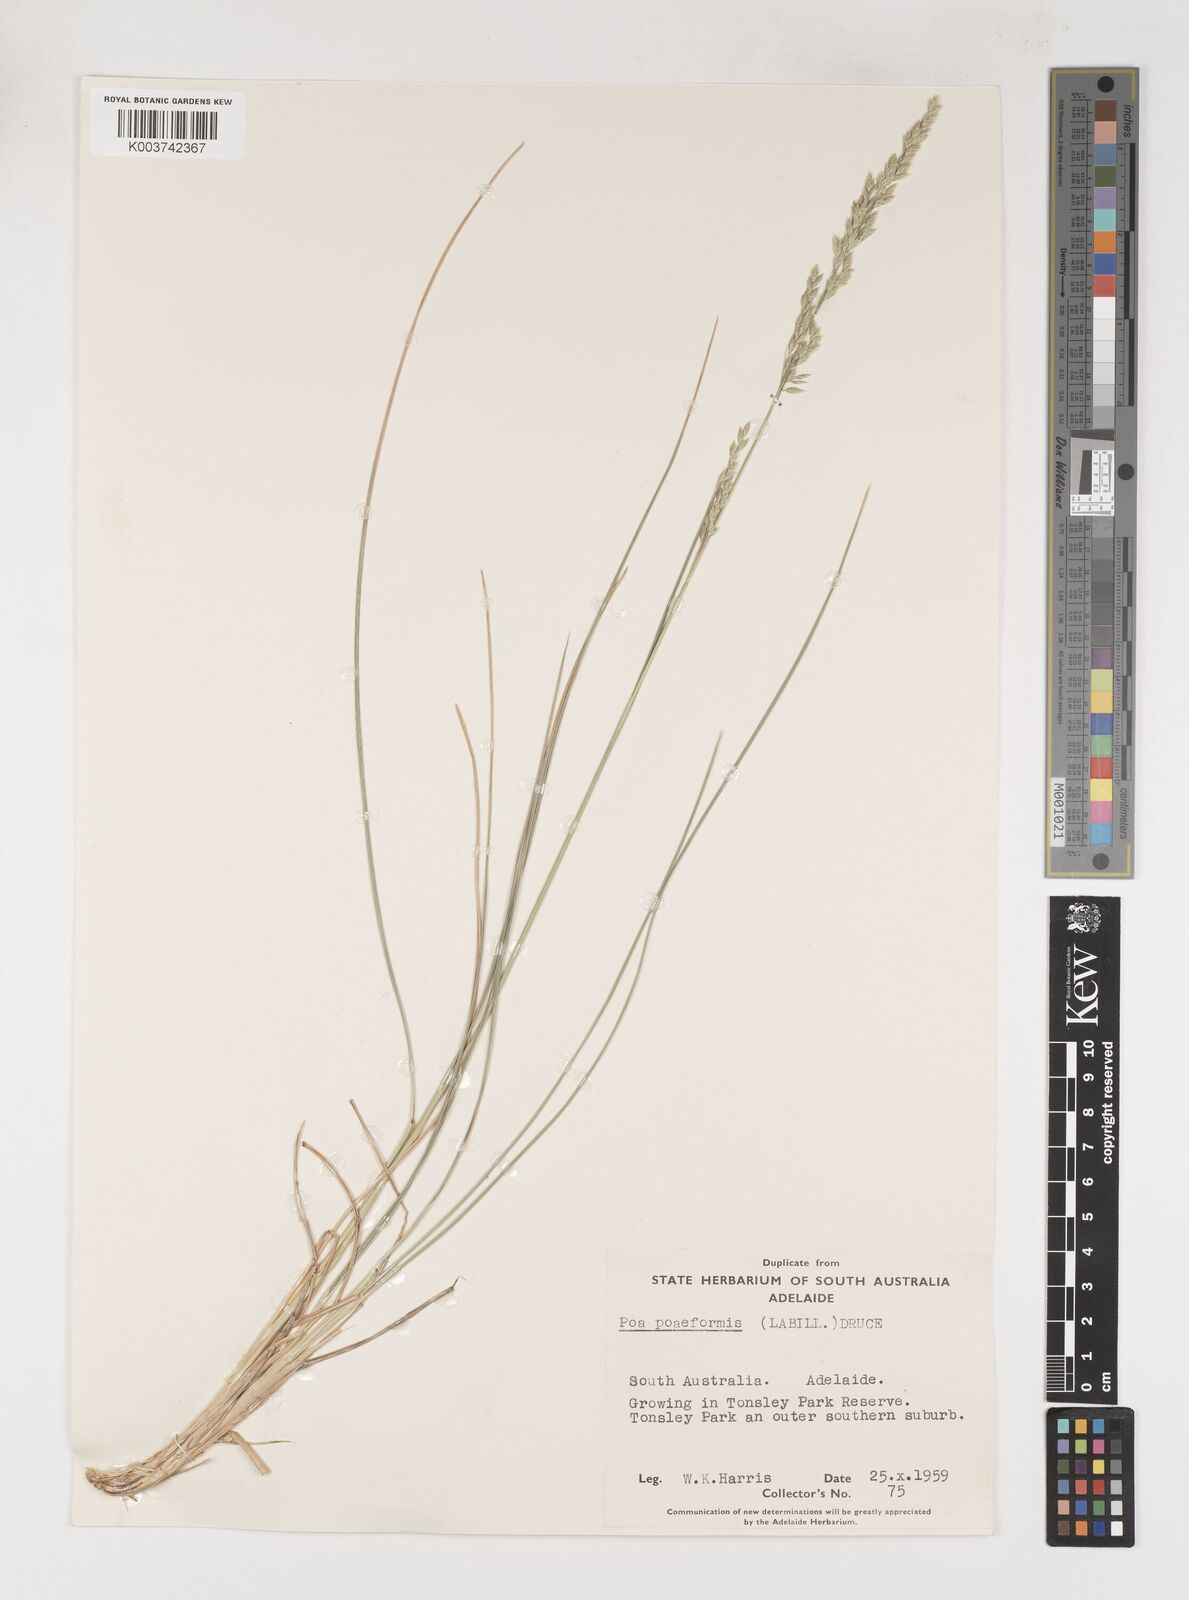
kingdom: Plantae
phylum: Tracheophyta
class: Liliopsida
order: Poales
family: Poaceae
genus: Poa
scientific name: Poa poiformis
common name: Tussock poa
